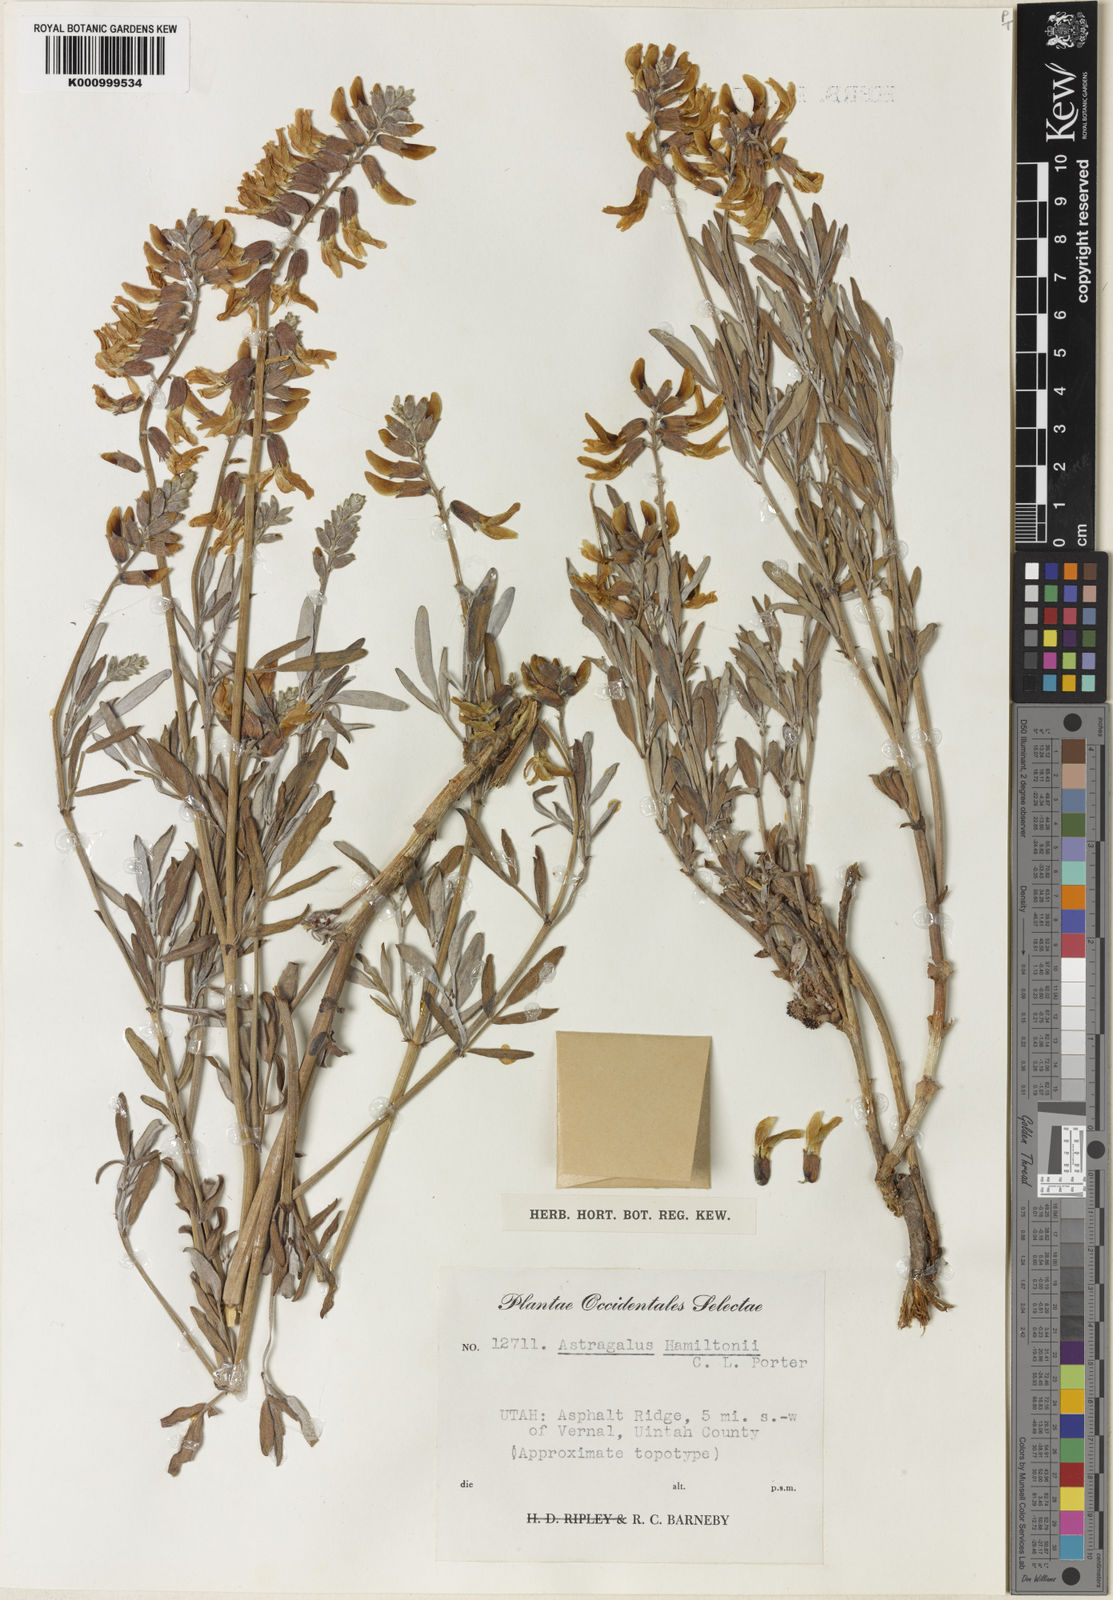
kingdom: Plantae
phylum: Tracheophyta
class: Magnoliopsida
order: Fabales
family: Fabaceae
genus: Astragalus
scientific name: Astragalus hamiltonii
